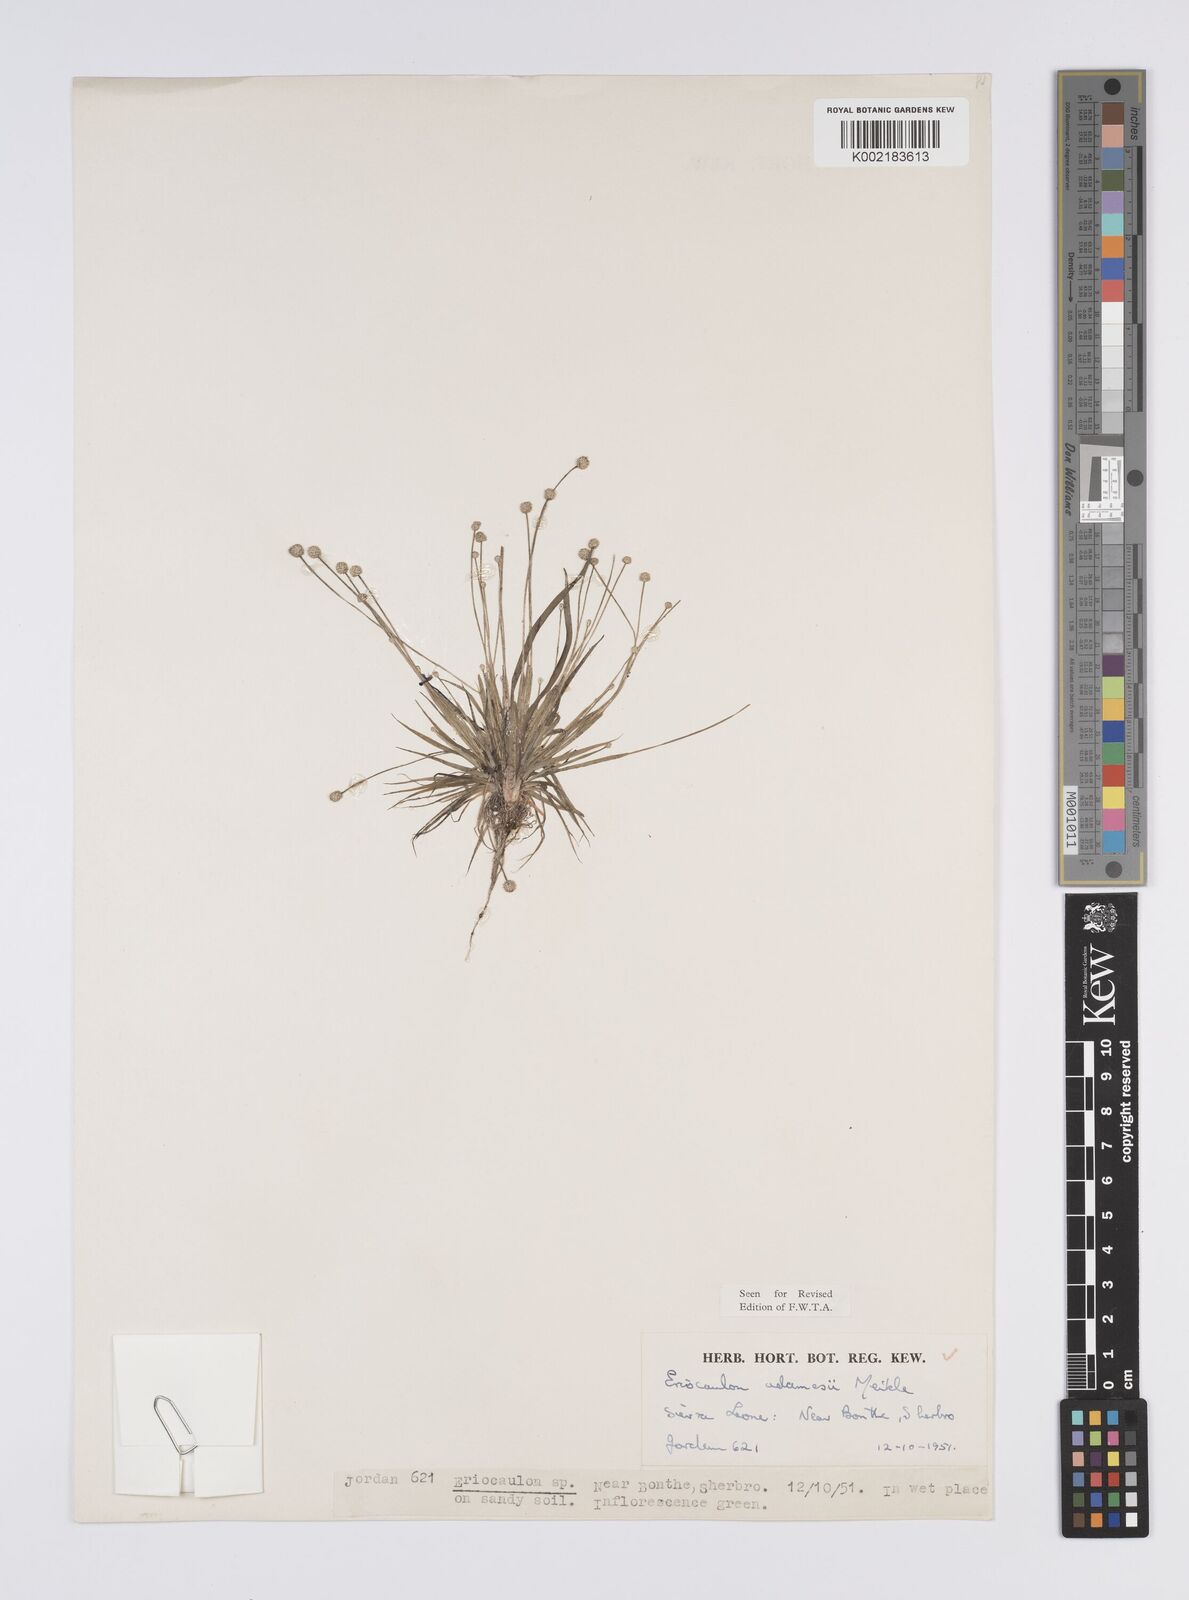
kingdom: Plantae
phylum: Tracheophyta
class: Liliopsida
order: Poales
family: Eriocaulaceae
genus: Eriocaulon
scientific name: Eriocaulon adamesii
